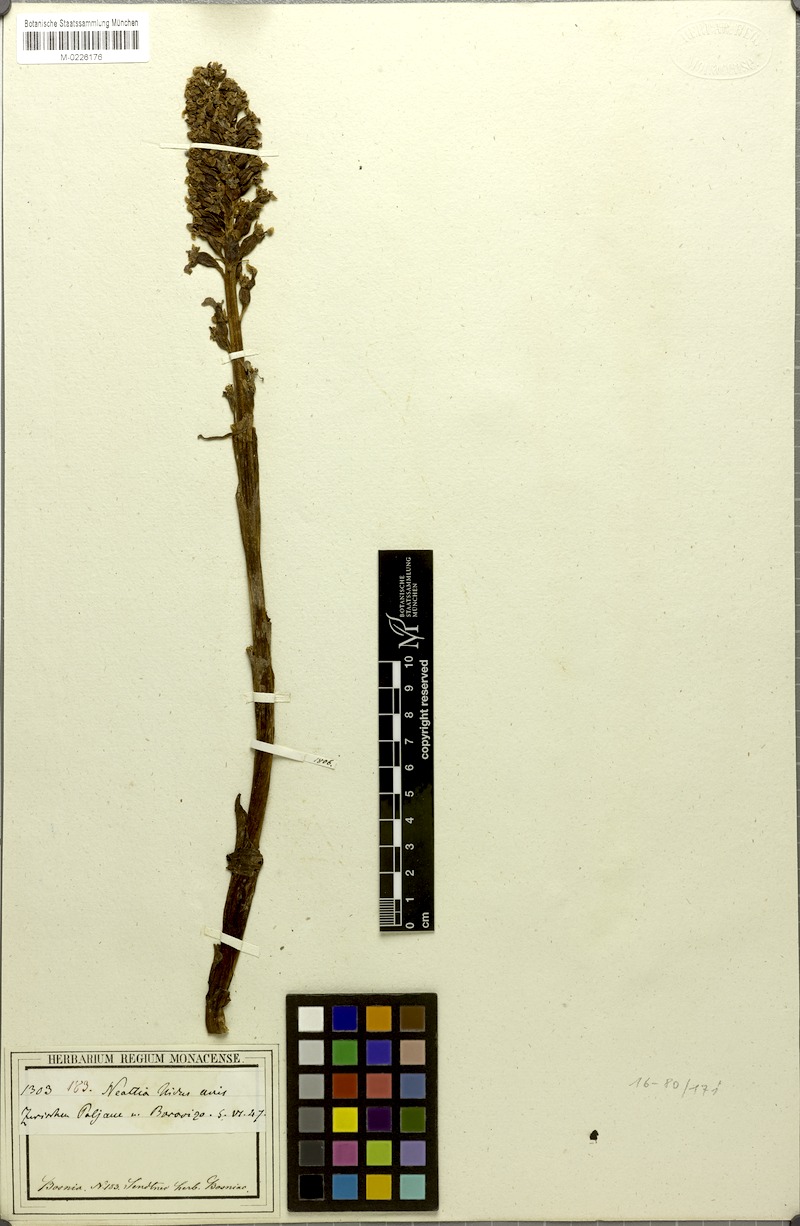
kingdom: Plantae
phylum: Tracheophyta
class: Liliopsida
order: Asparagales
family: Orchidaceae
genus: Neottia
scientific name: Neottia nidus-avis
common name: Bird's-nest orchid
